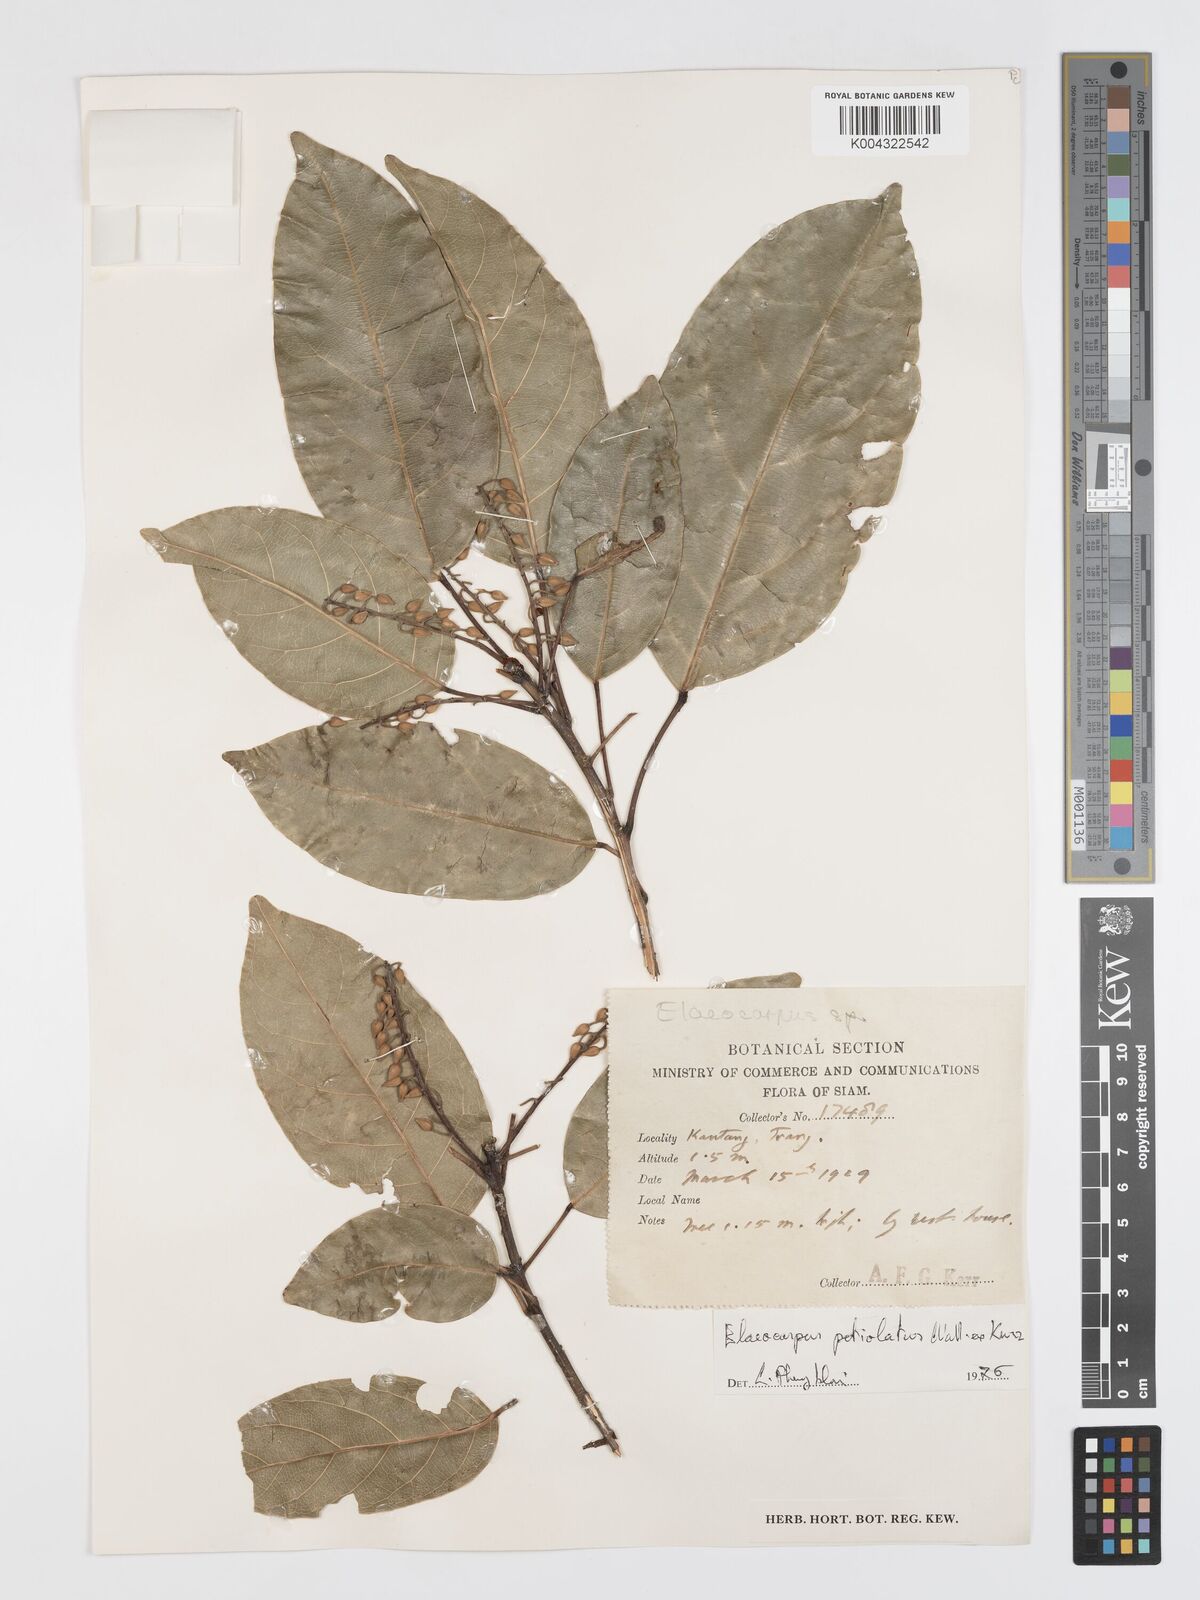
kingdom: Plantae
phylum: Tracheophyta
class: Magnoliopsida
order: Oxalidales
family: Elaeocarpaceae
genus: Elaeocarpus
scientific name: Elaeocarpus petiolatus
